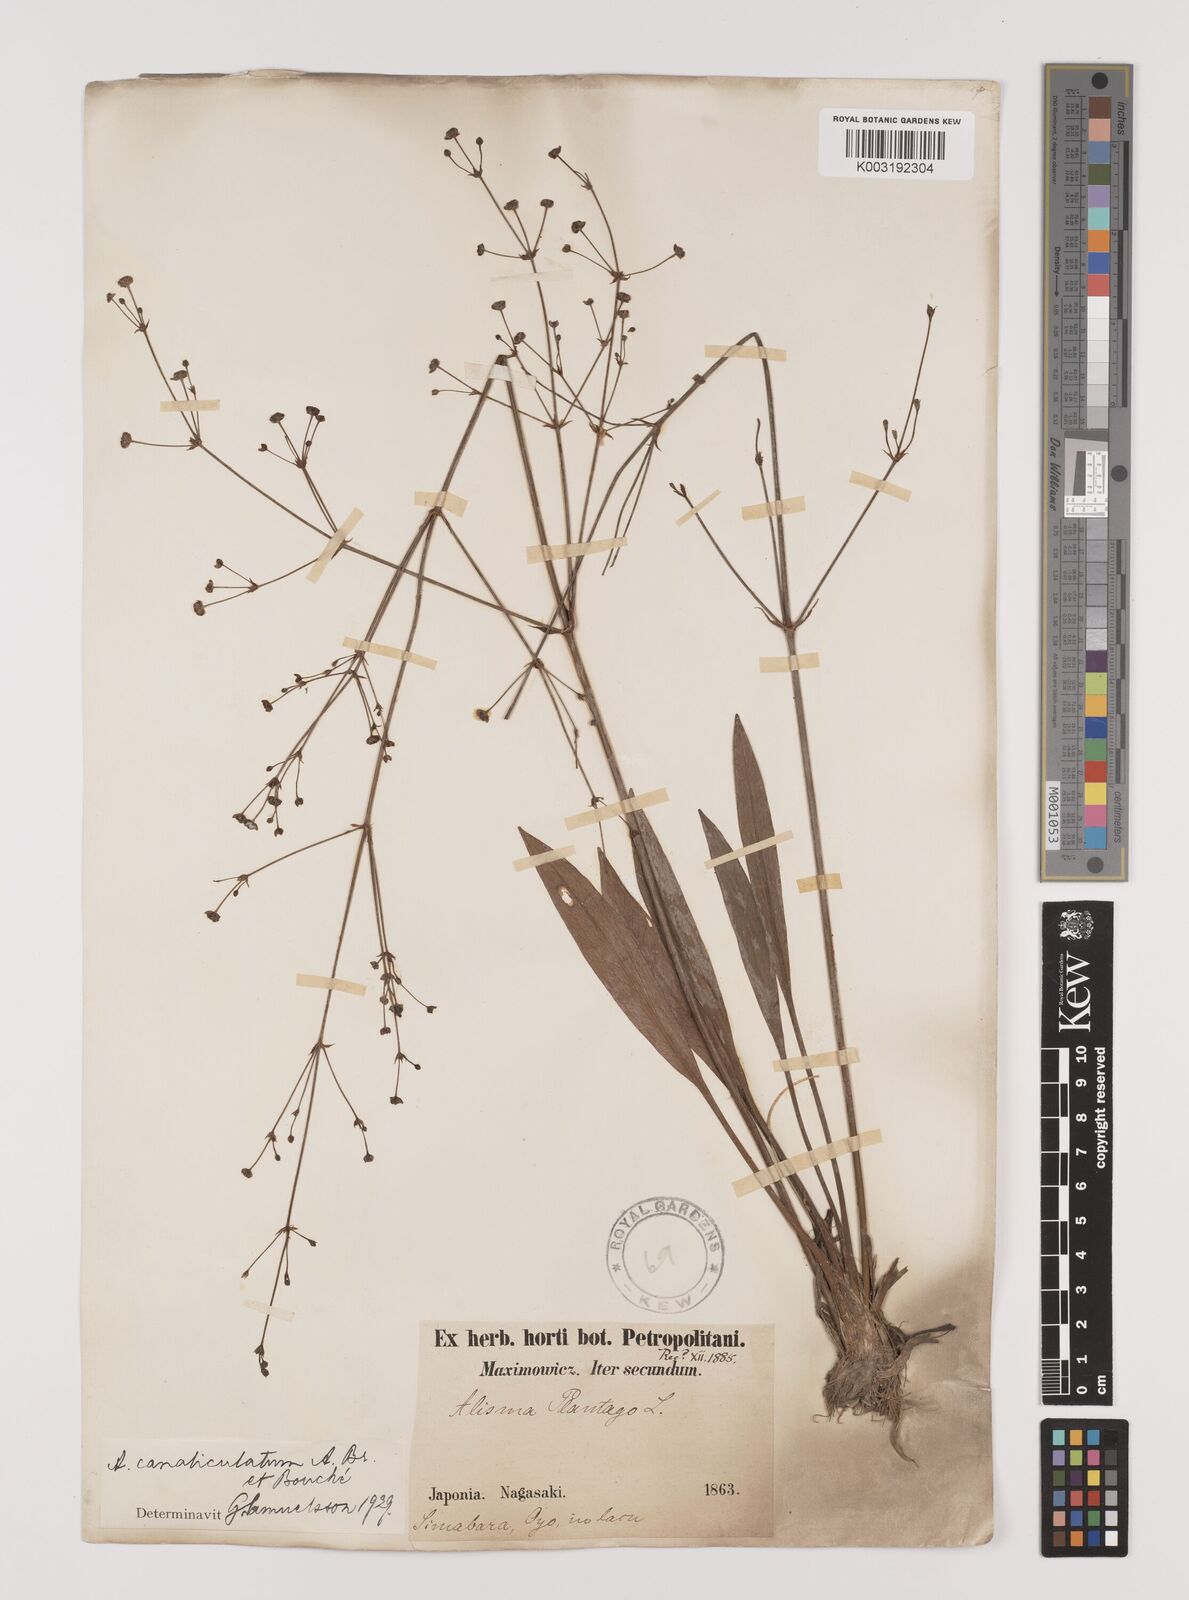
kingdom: Plantae
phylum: Tracheophyta
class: Liliopsida
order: Alismatales
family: Alismataceae
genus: Alisma
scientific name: Alisma canaliculatum
